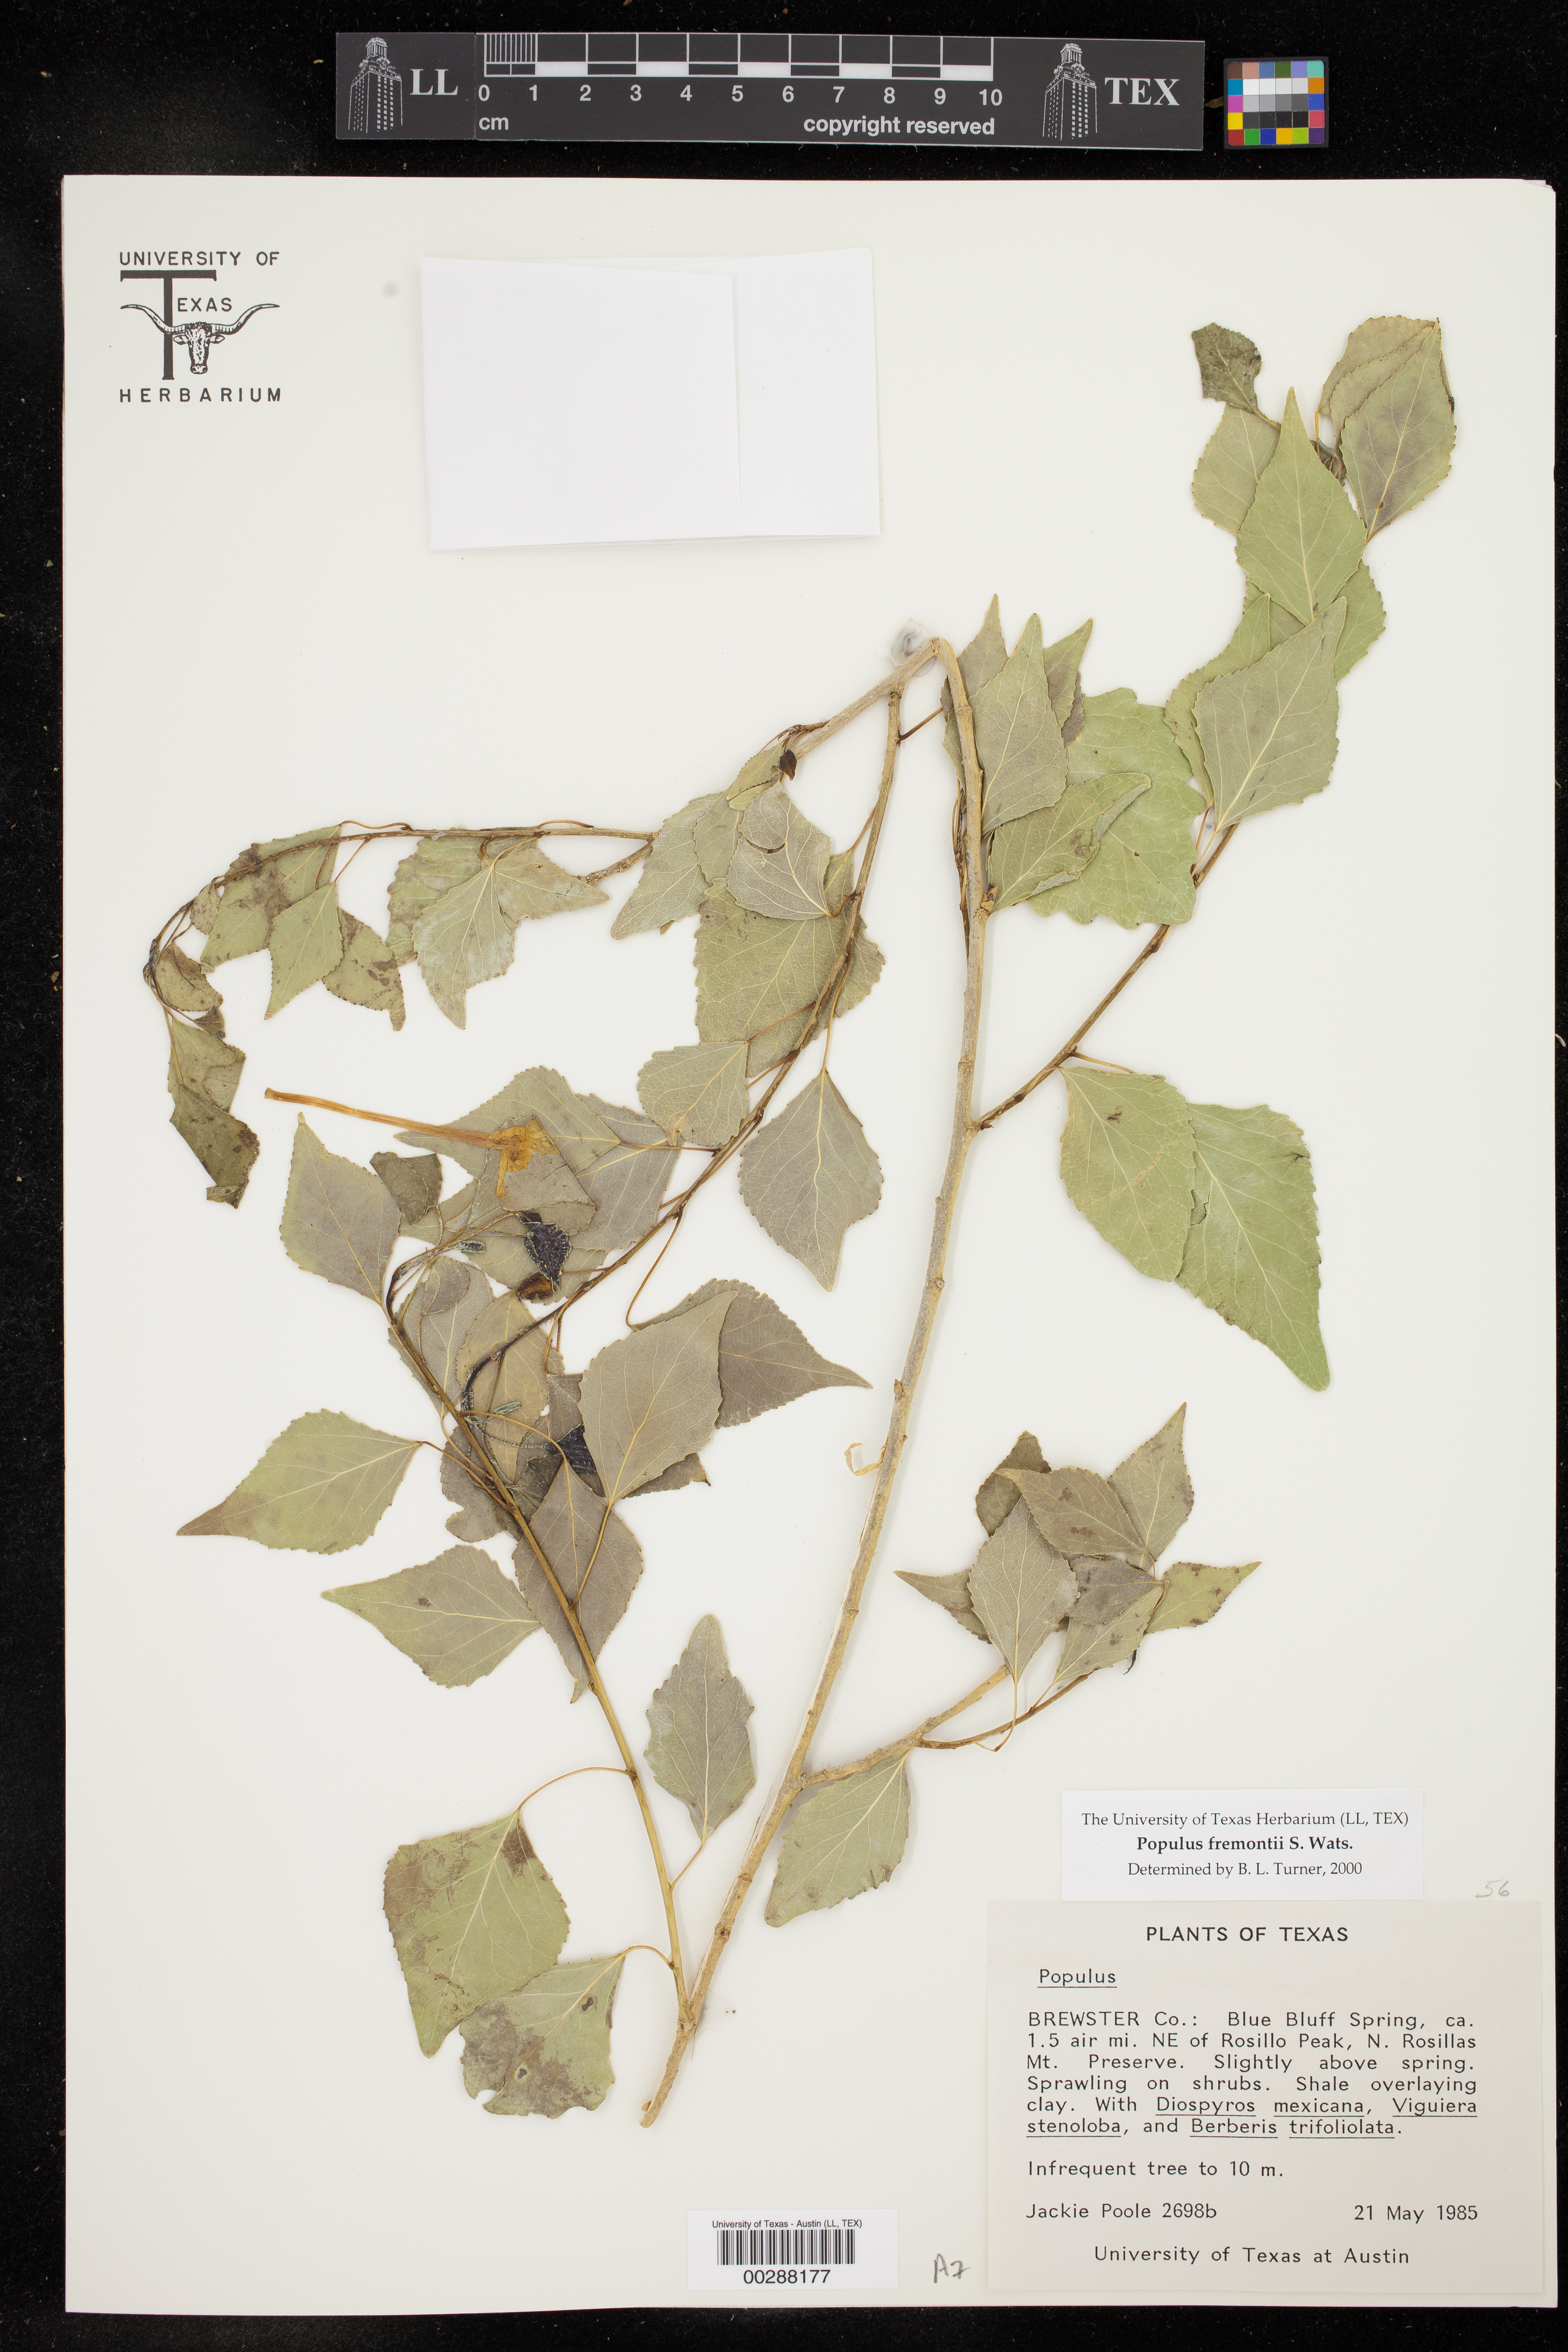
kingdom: Plantae
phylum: Tracheophyta
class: Magnoliopsida
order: Malpighiales
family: Salicaceae
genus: Populus
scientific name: Populus fremontii
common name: Fremont's cottonwood
